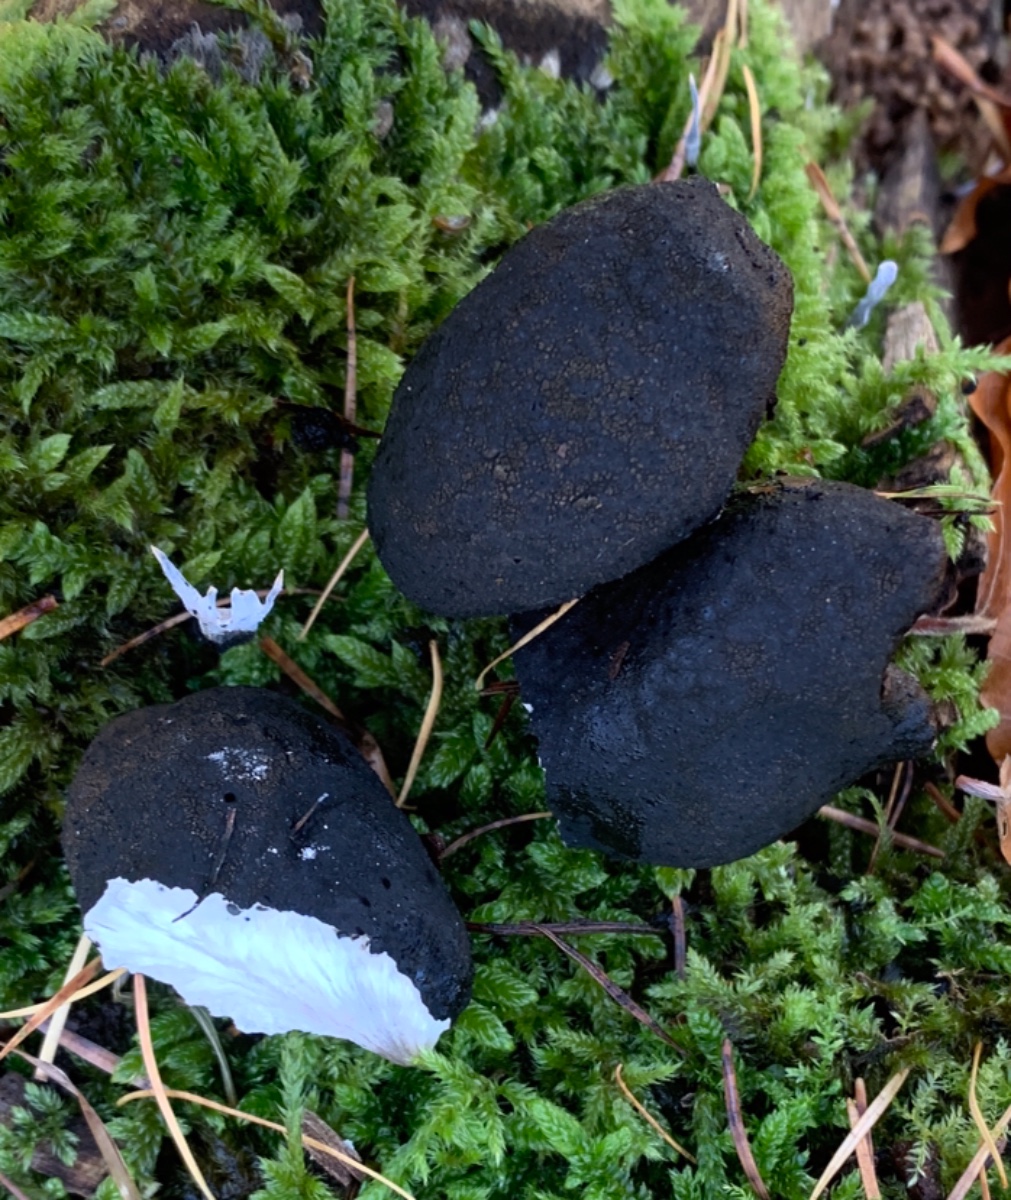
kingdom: Fungi
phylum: Ascomycota
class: Sordariomycetes
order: Xylariales
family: Xylariaceae
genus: Xylaria
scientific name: Xylaria polymorpha
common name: kølle-stødsvamp
